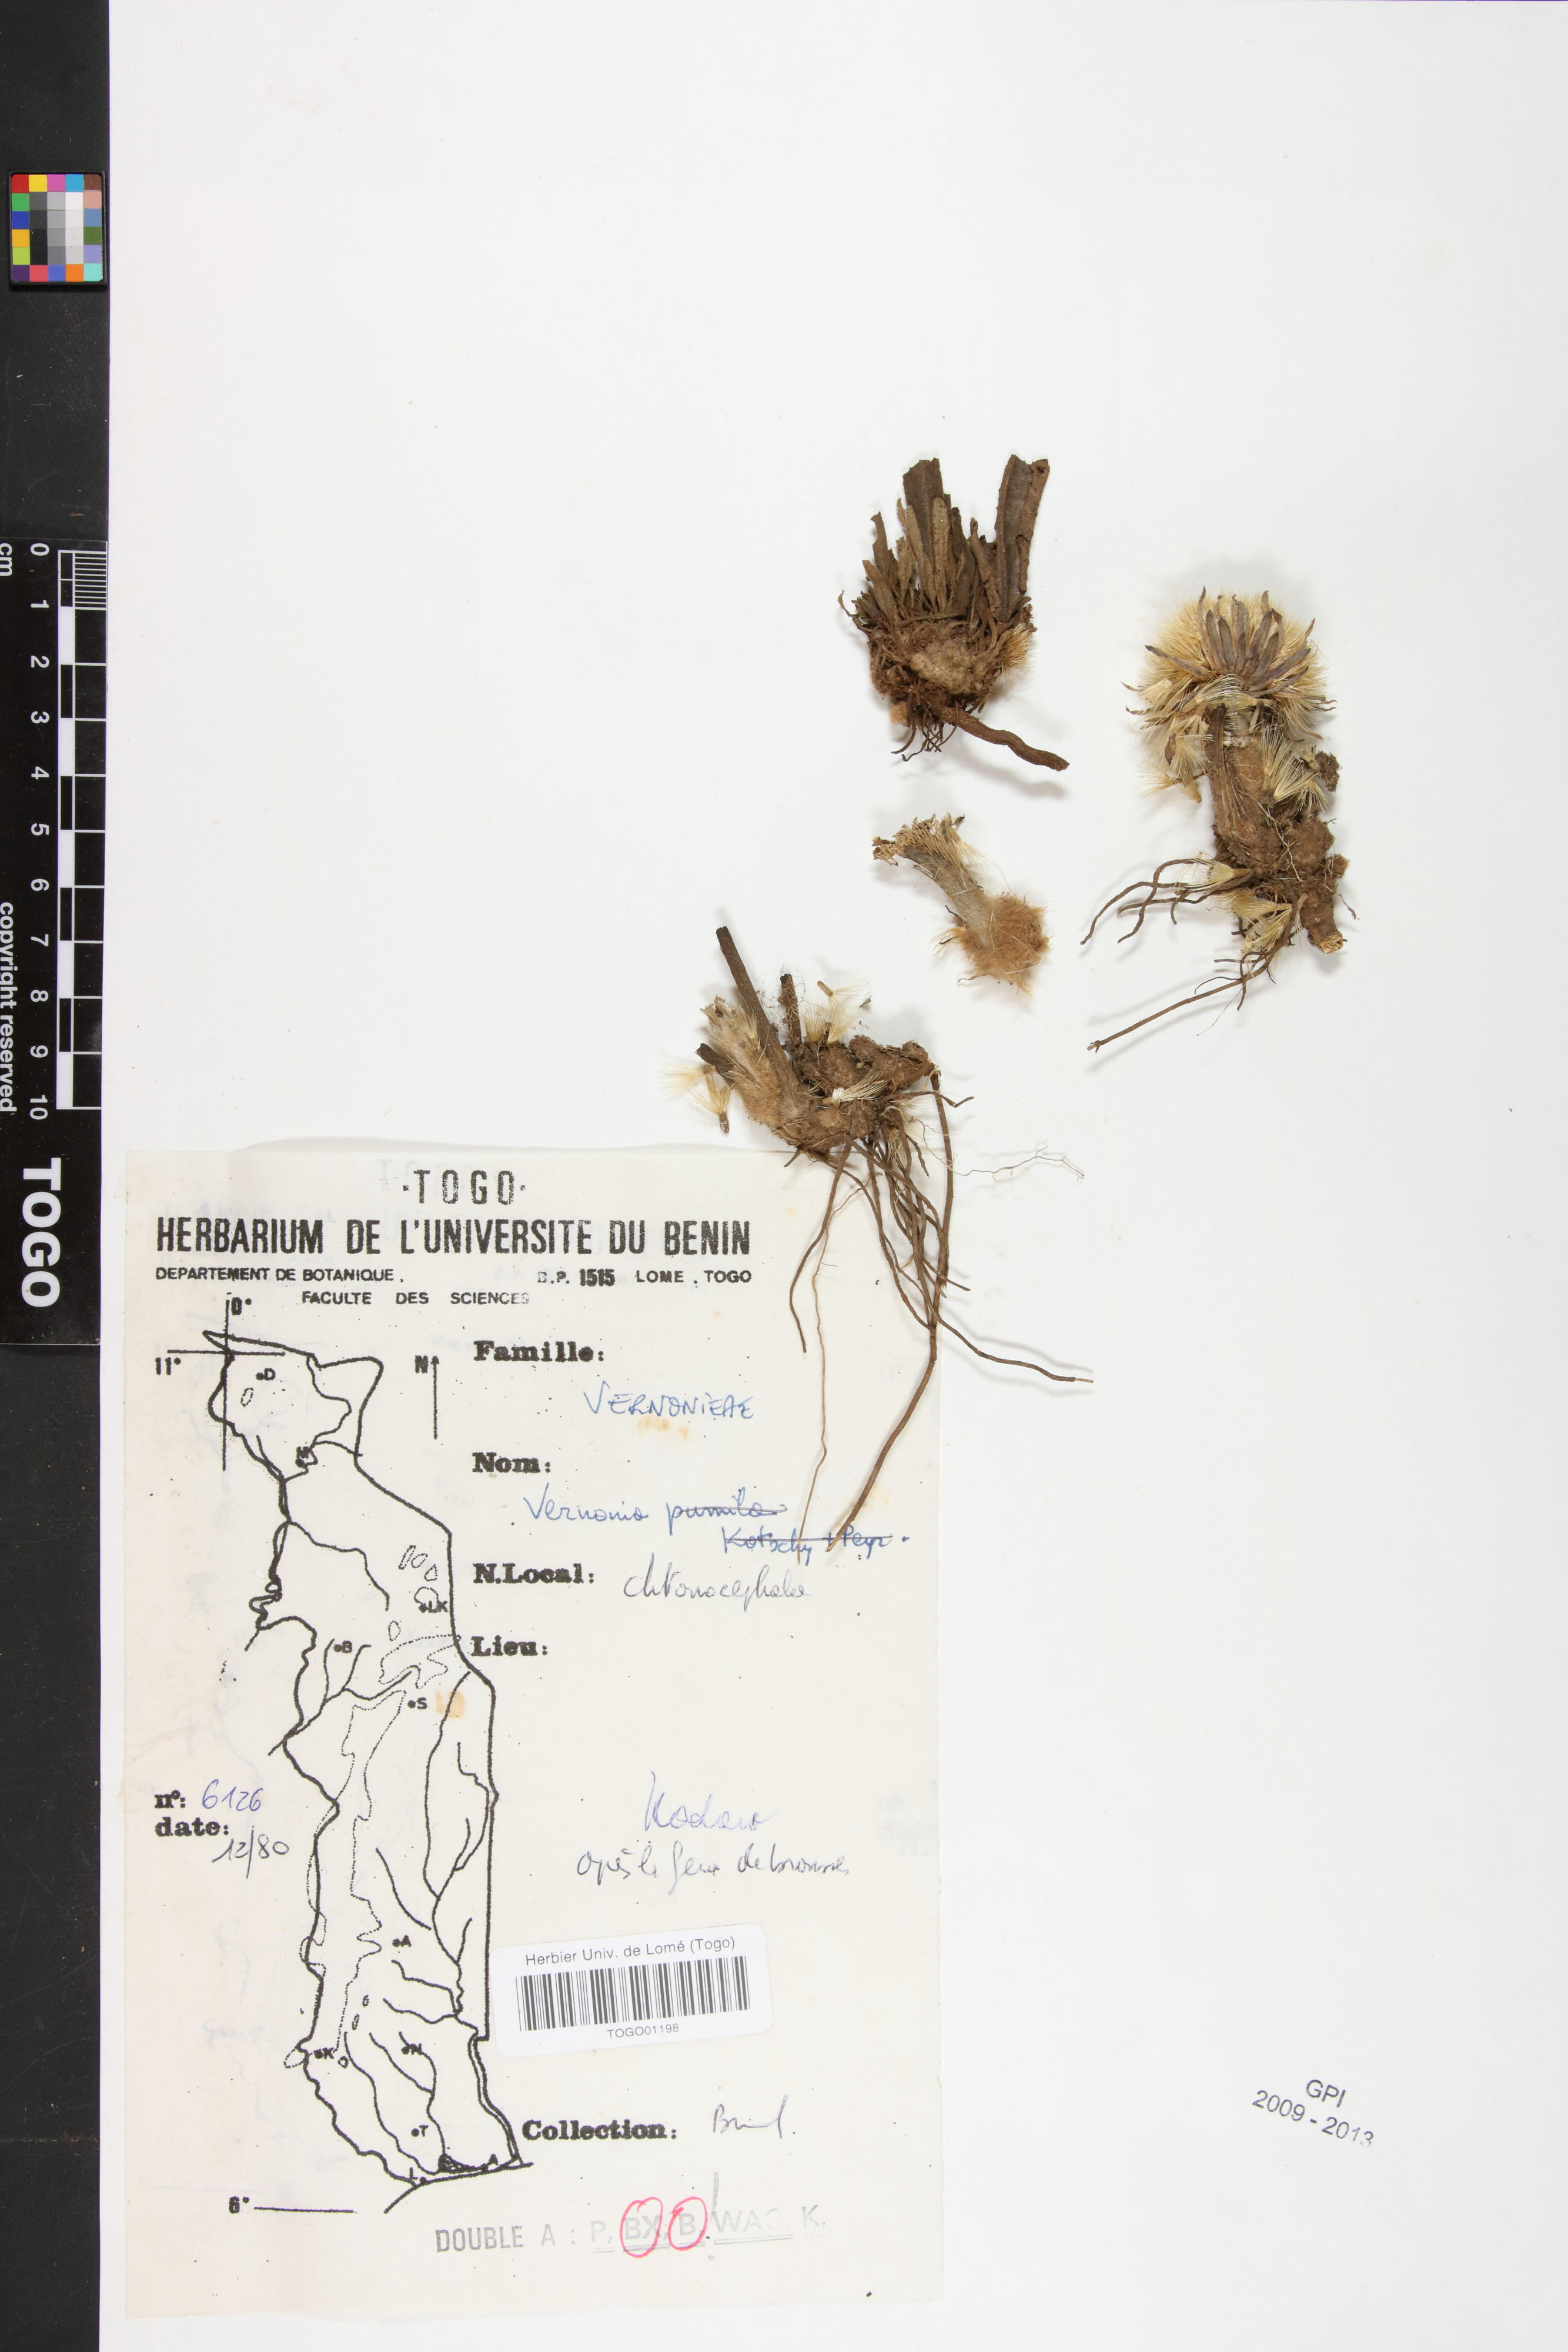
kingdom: Plantae
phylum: Tracheophyta
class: Magnoliopsida
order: Asterales
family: Asteraceae
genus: Vernonella
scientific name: Vernonella chthonocephala
